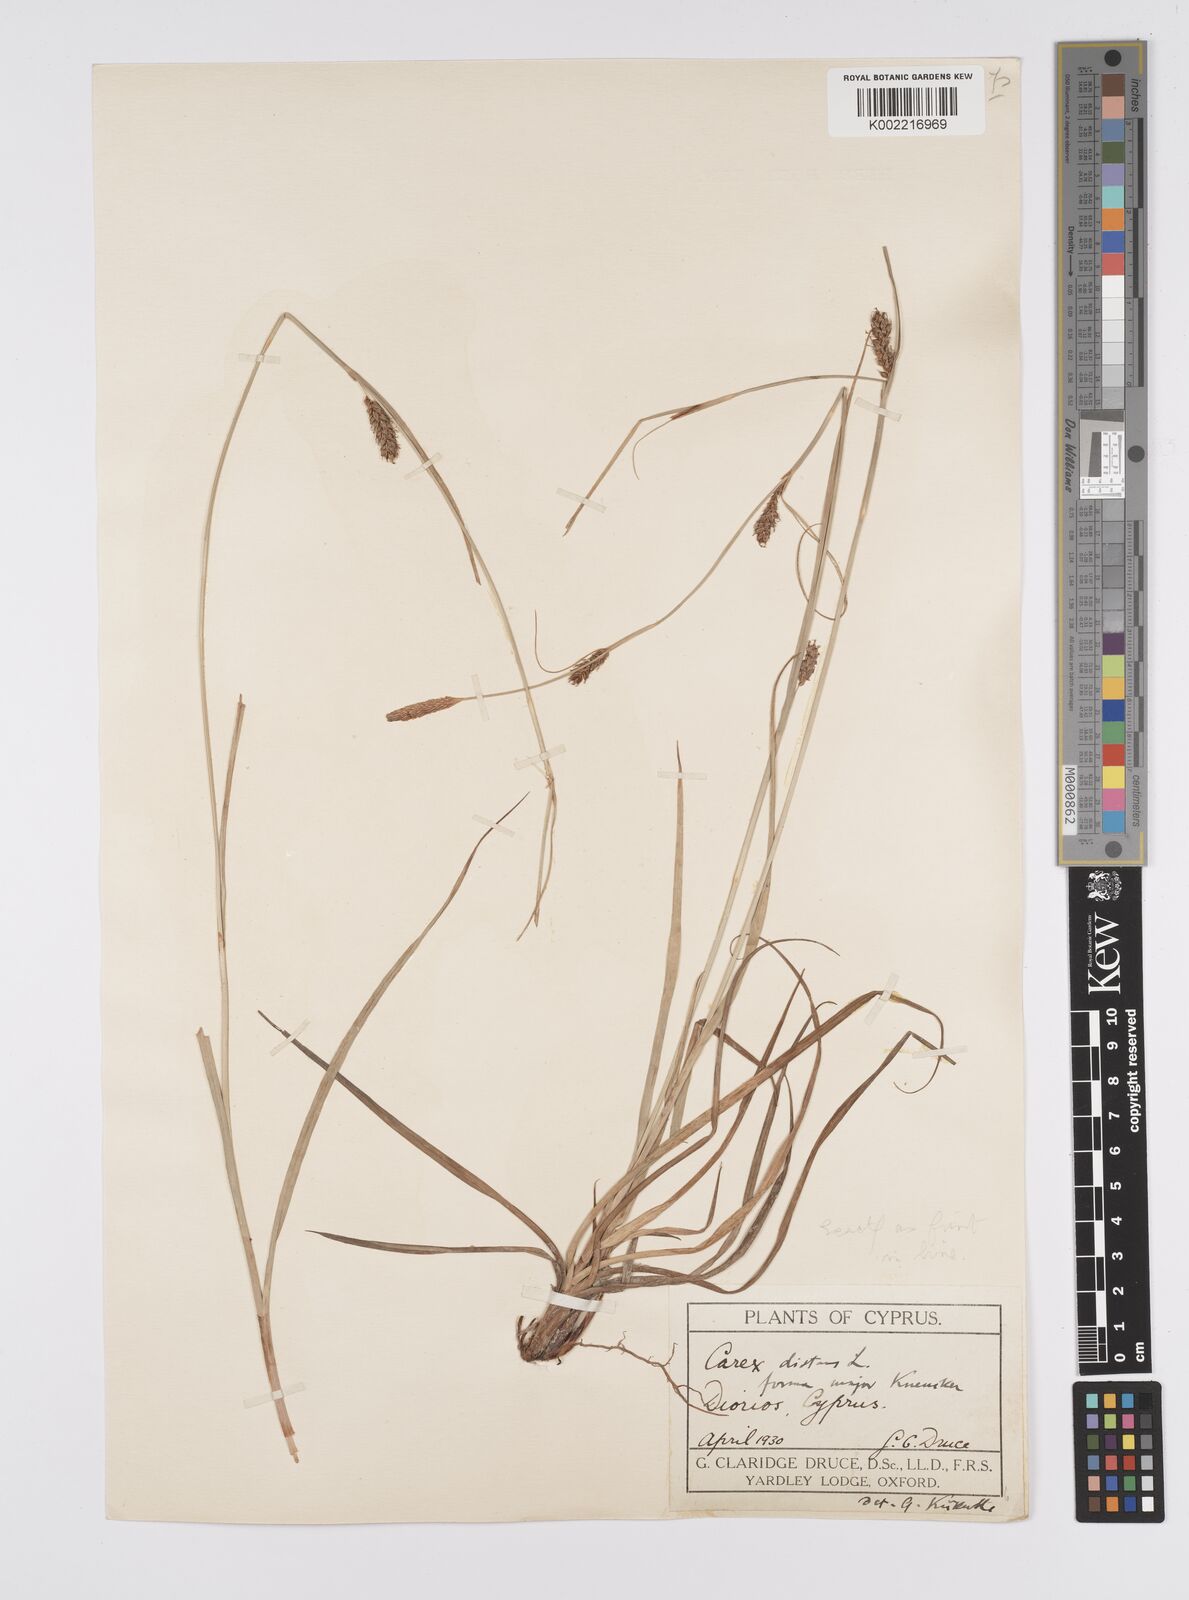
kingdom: Plantae
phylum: Tracheophyta
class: Liliopsida
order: Poales
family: Cyperaceae
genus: Carex
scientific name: Carex distans
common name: Distant sedge
